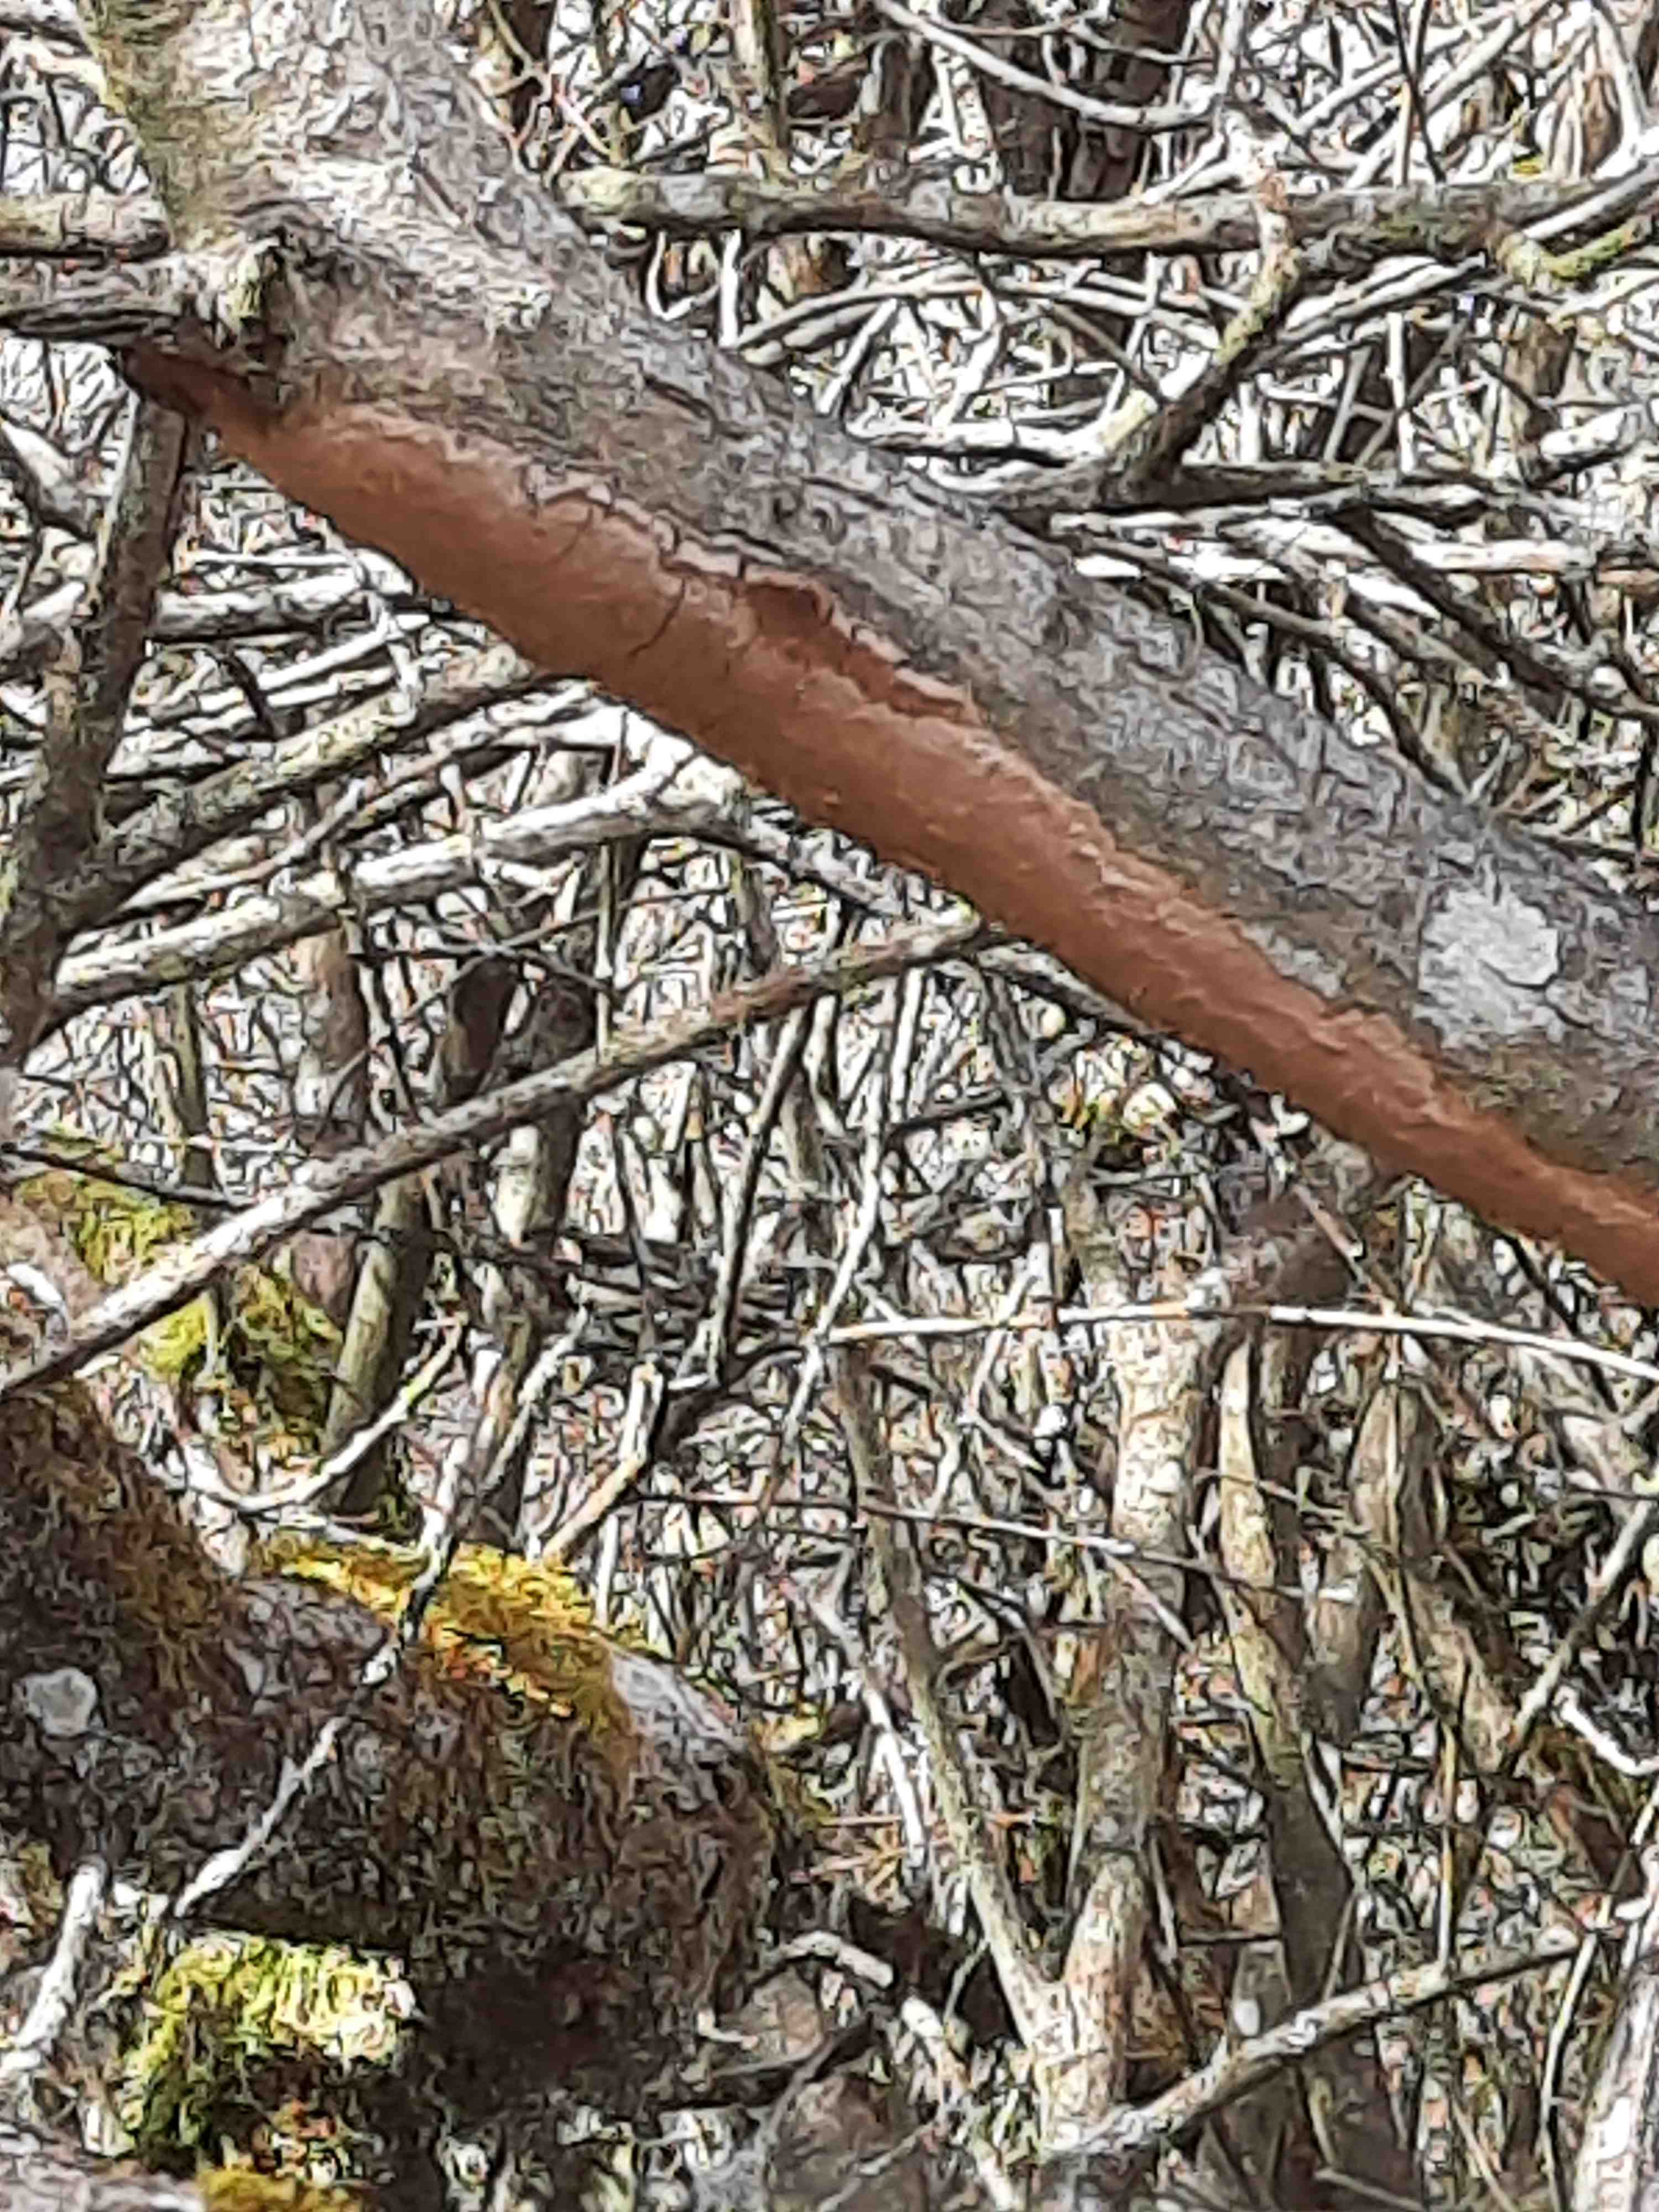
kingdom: Fungi
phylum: Basidiomycota
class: Agaricomycetes
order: Hymenochaetales
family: Hymenochaetaceae
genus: Fomitiporia
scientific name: Fomitiporia punctata
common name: pude-ildporesvamp
